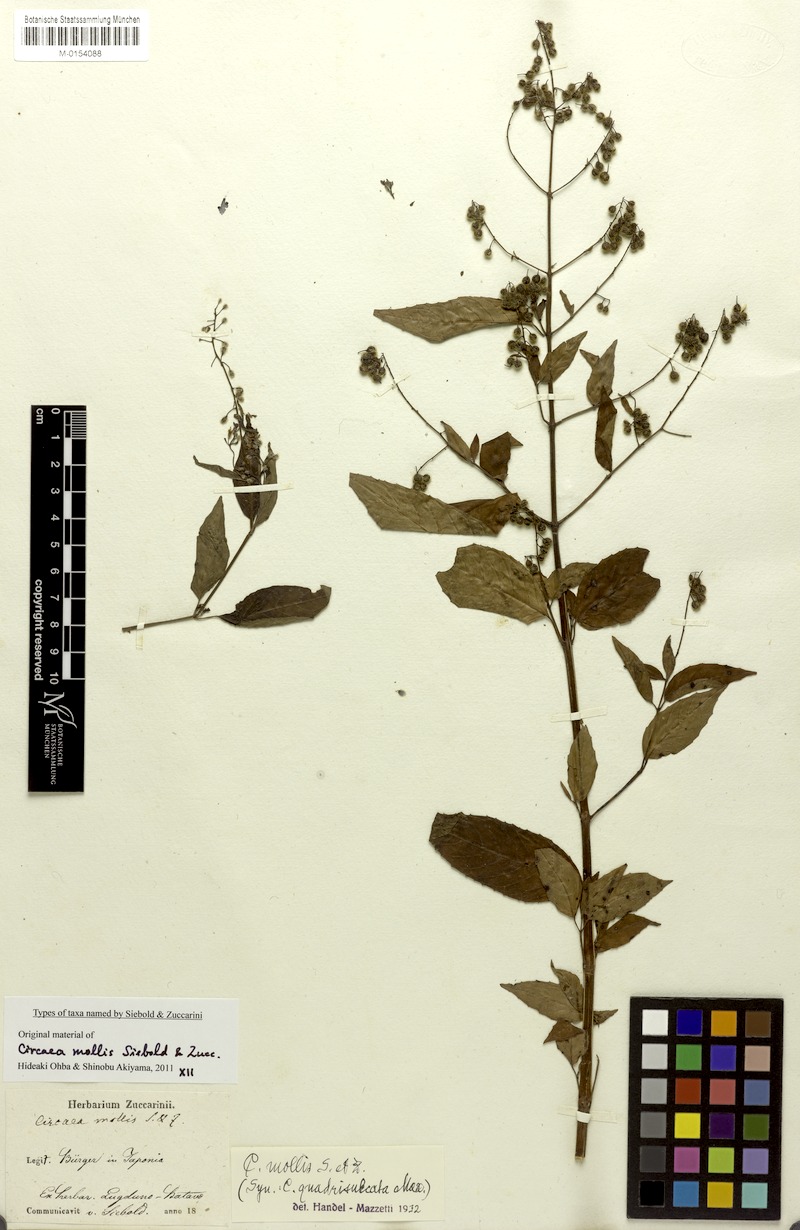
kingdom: Plantae
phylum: Tracheophyta
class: Magnoliopsida
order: Myrtales
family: Onagraceae
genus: Circaea
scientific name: Circaea mollis
